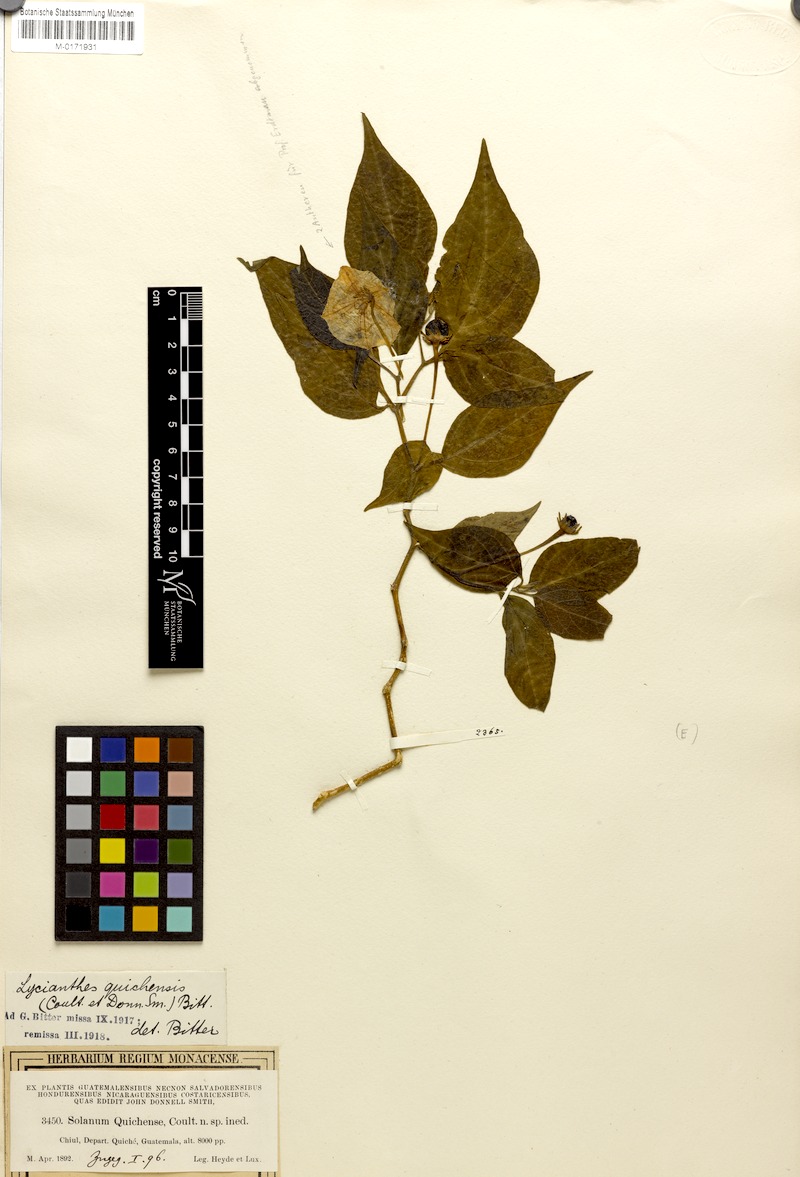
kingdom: Plantae
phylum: Tracheophyta
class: Magnoliopsida
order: Solanales
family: Solanaceae
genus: Lycianthes
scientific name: Lycianthes quichensis
